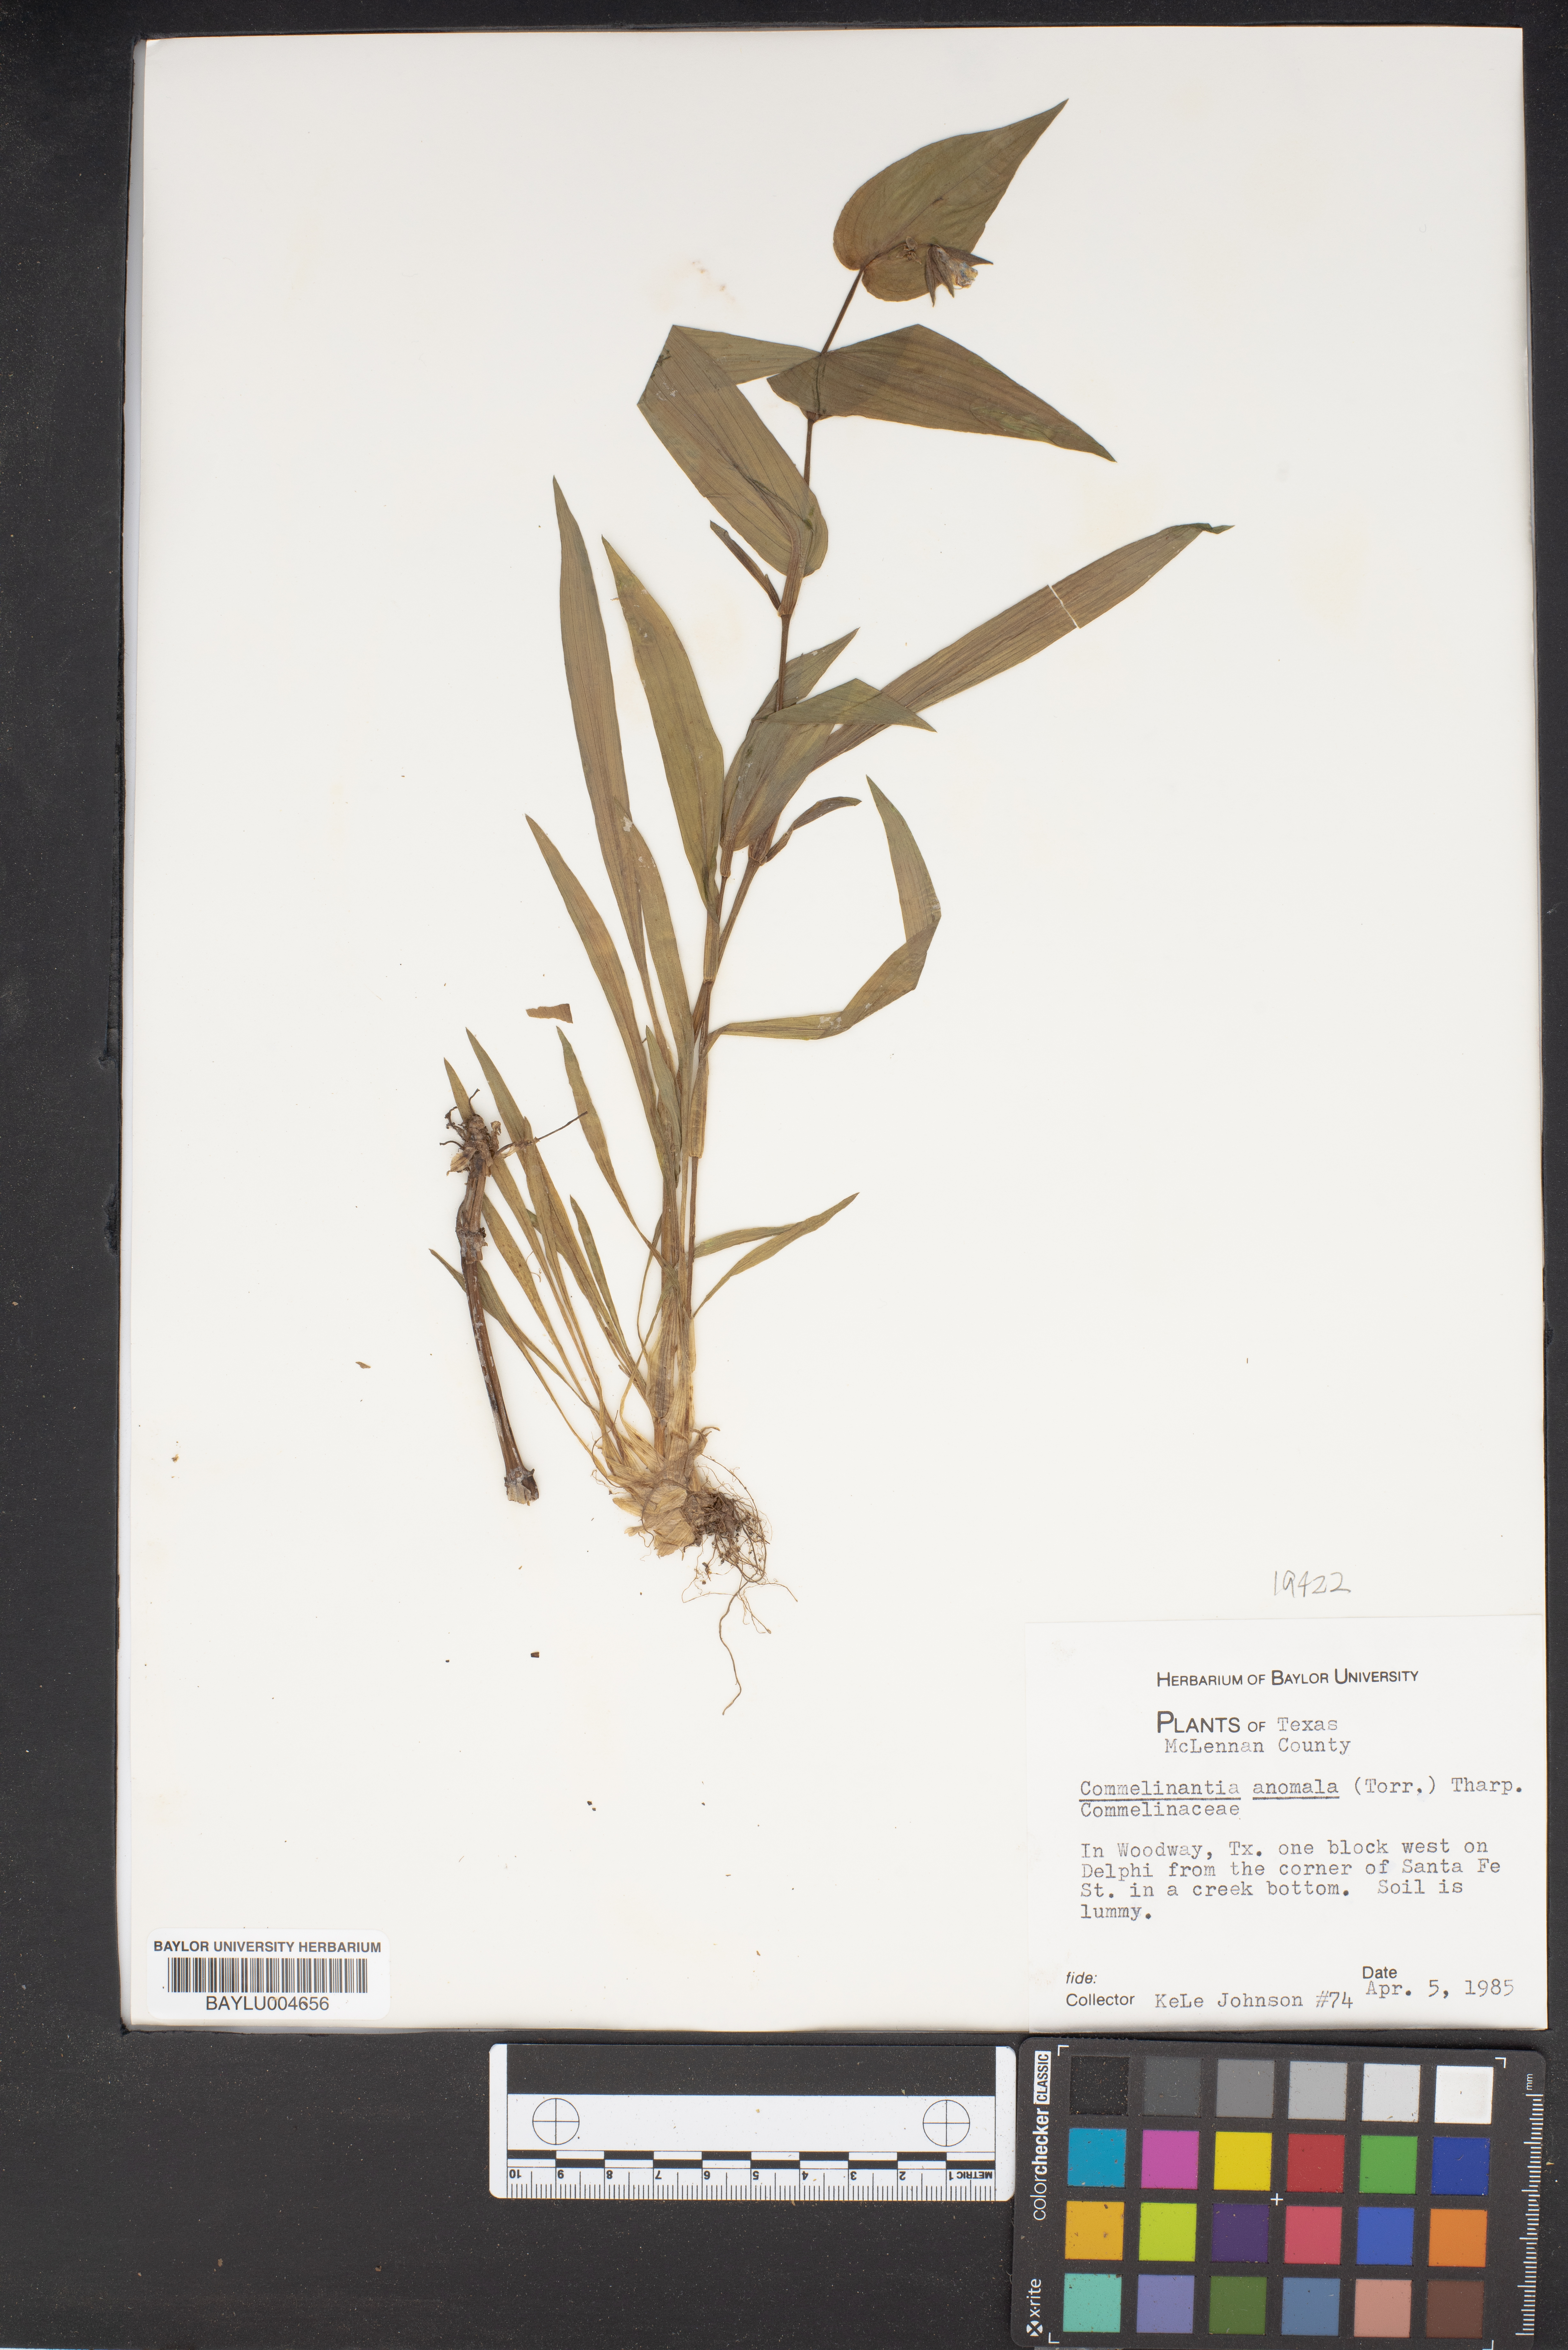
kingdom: Plantae
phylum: Tracheophyta
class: Liliopsida
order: Commelinales
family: Commelinaceae
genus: Tinantia
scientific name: Tinantia anomala
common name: False dayflower
